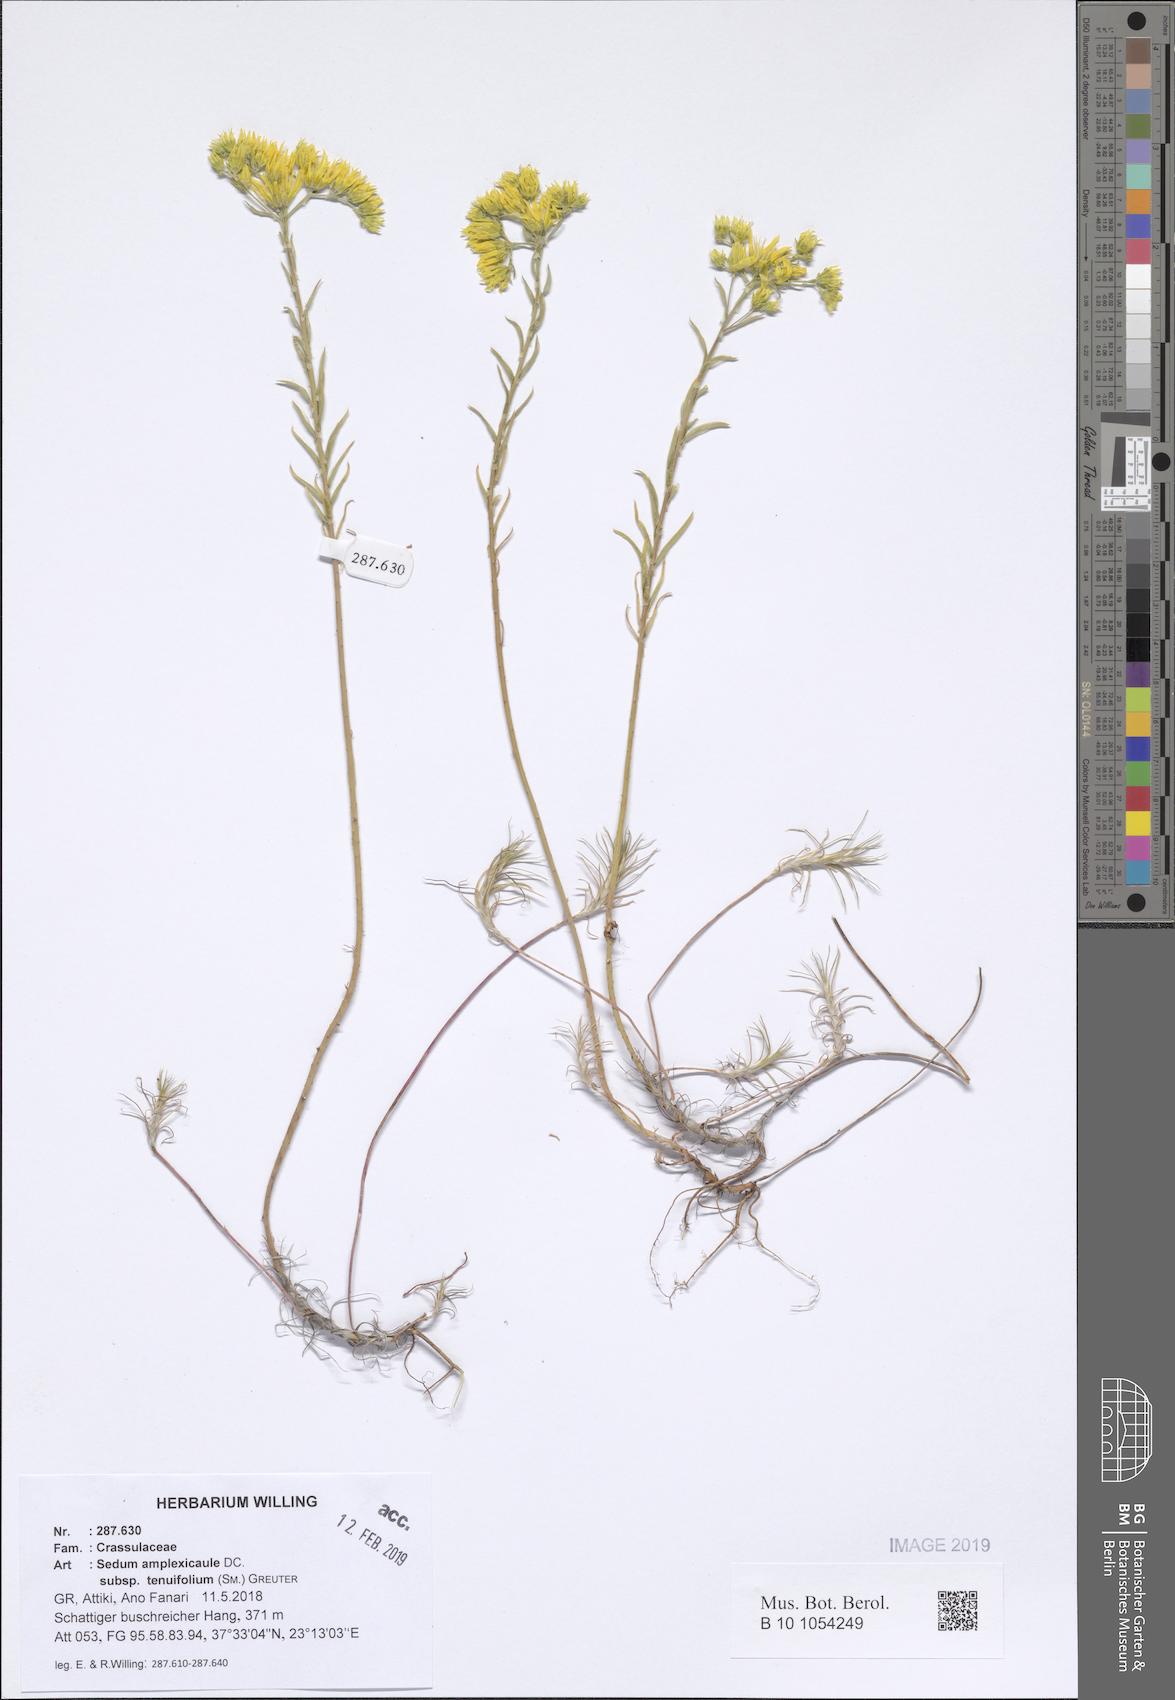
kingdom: Plantae
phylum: Tracheophyta
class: Magnoliopsida
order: Saxifragales
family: Crassulaceae
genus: Petrosedum
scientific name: Petrosedum tenuifolium
